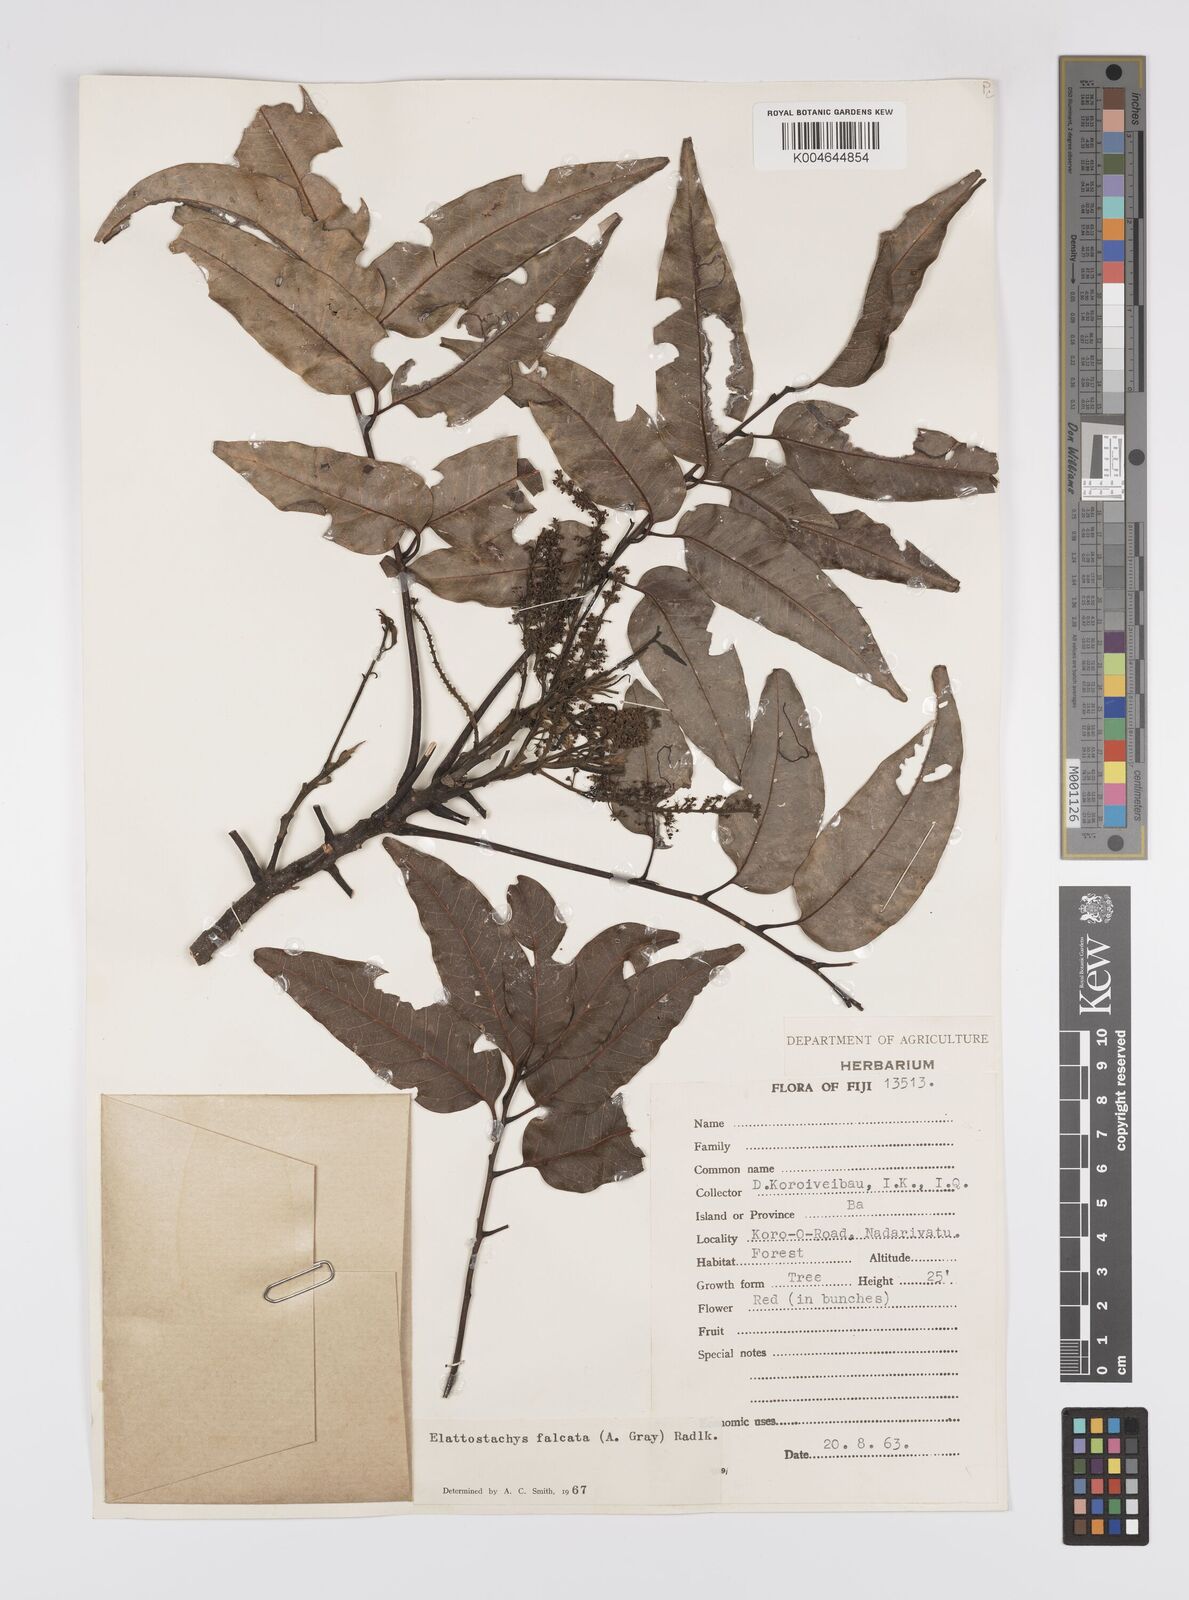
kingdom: Plantae
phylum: Tracheophyta
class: Magnoliopsida
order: Sapindales
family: Sapindaceae
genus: Elattostachys
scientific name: Elattostachys apetala
